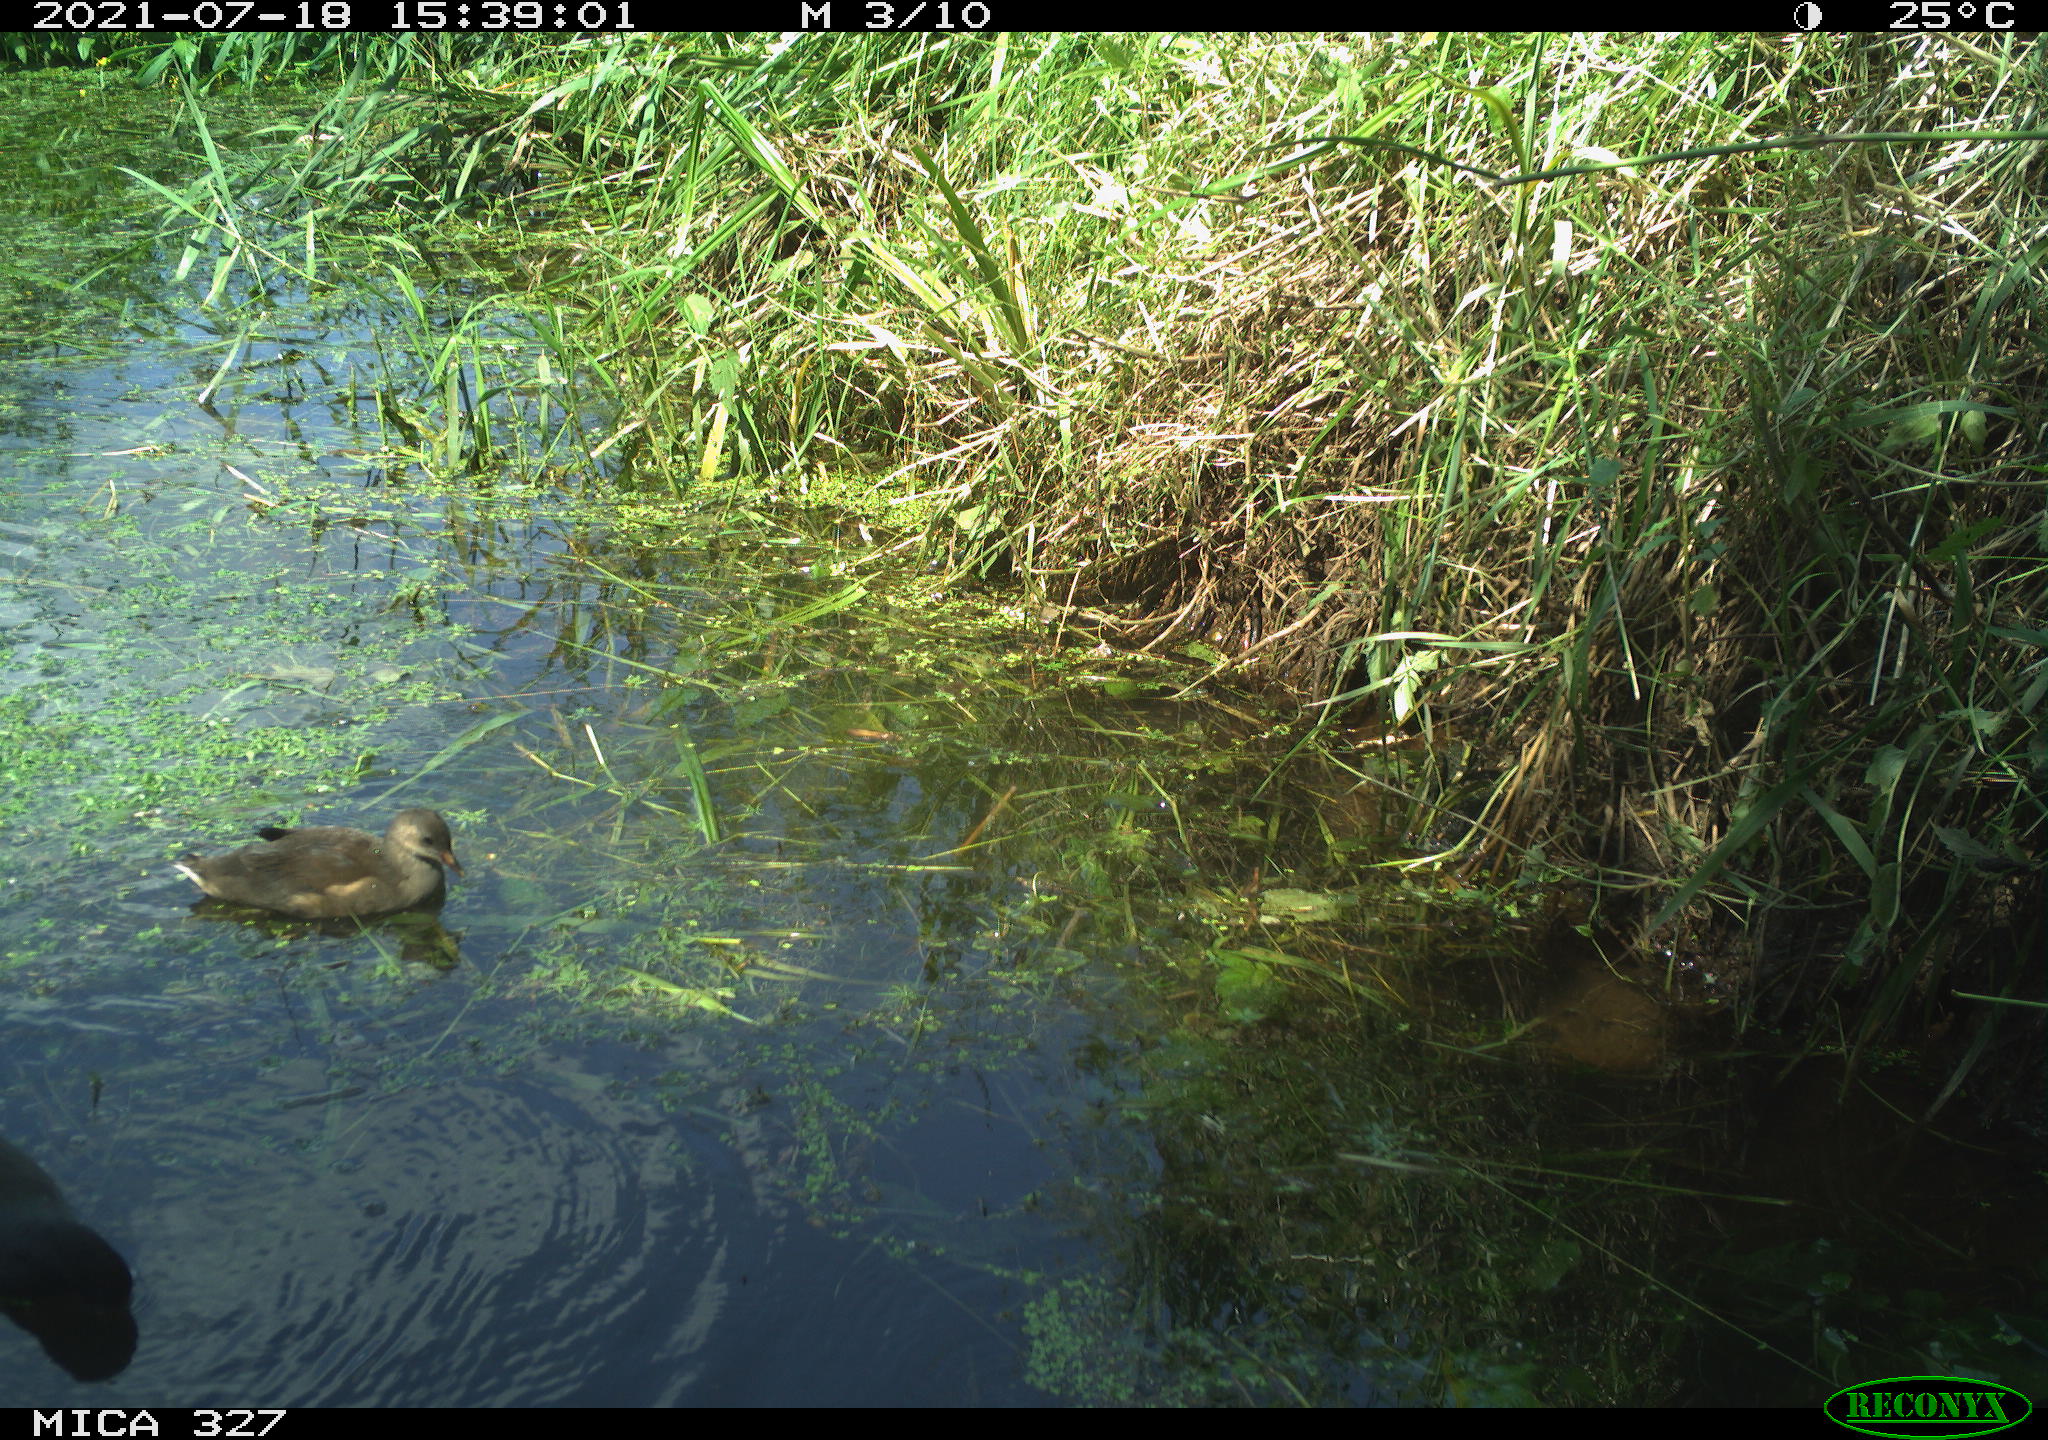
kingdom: Animalia
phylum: Chordata
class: Aves
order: Gruiformes
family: Rallidae
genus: Gallinula
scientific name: Gallinula chloropus
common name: Common moorhen
